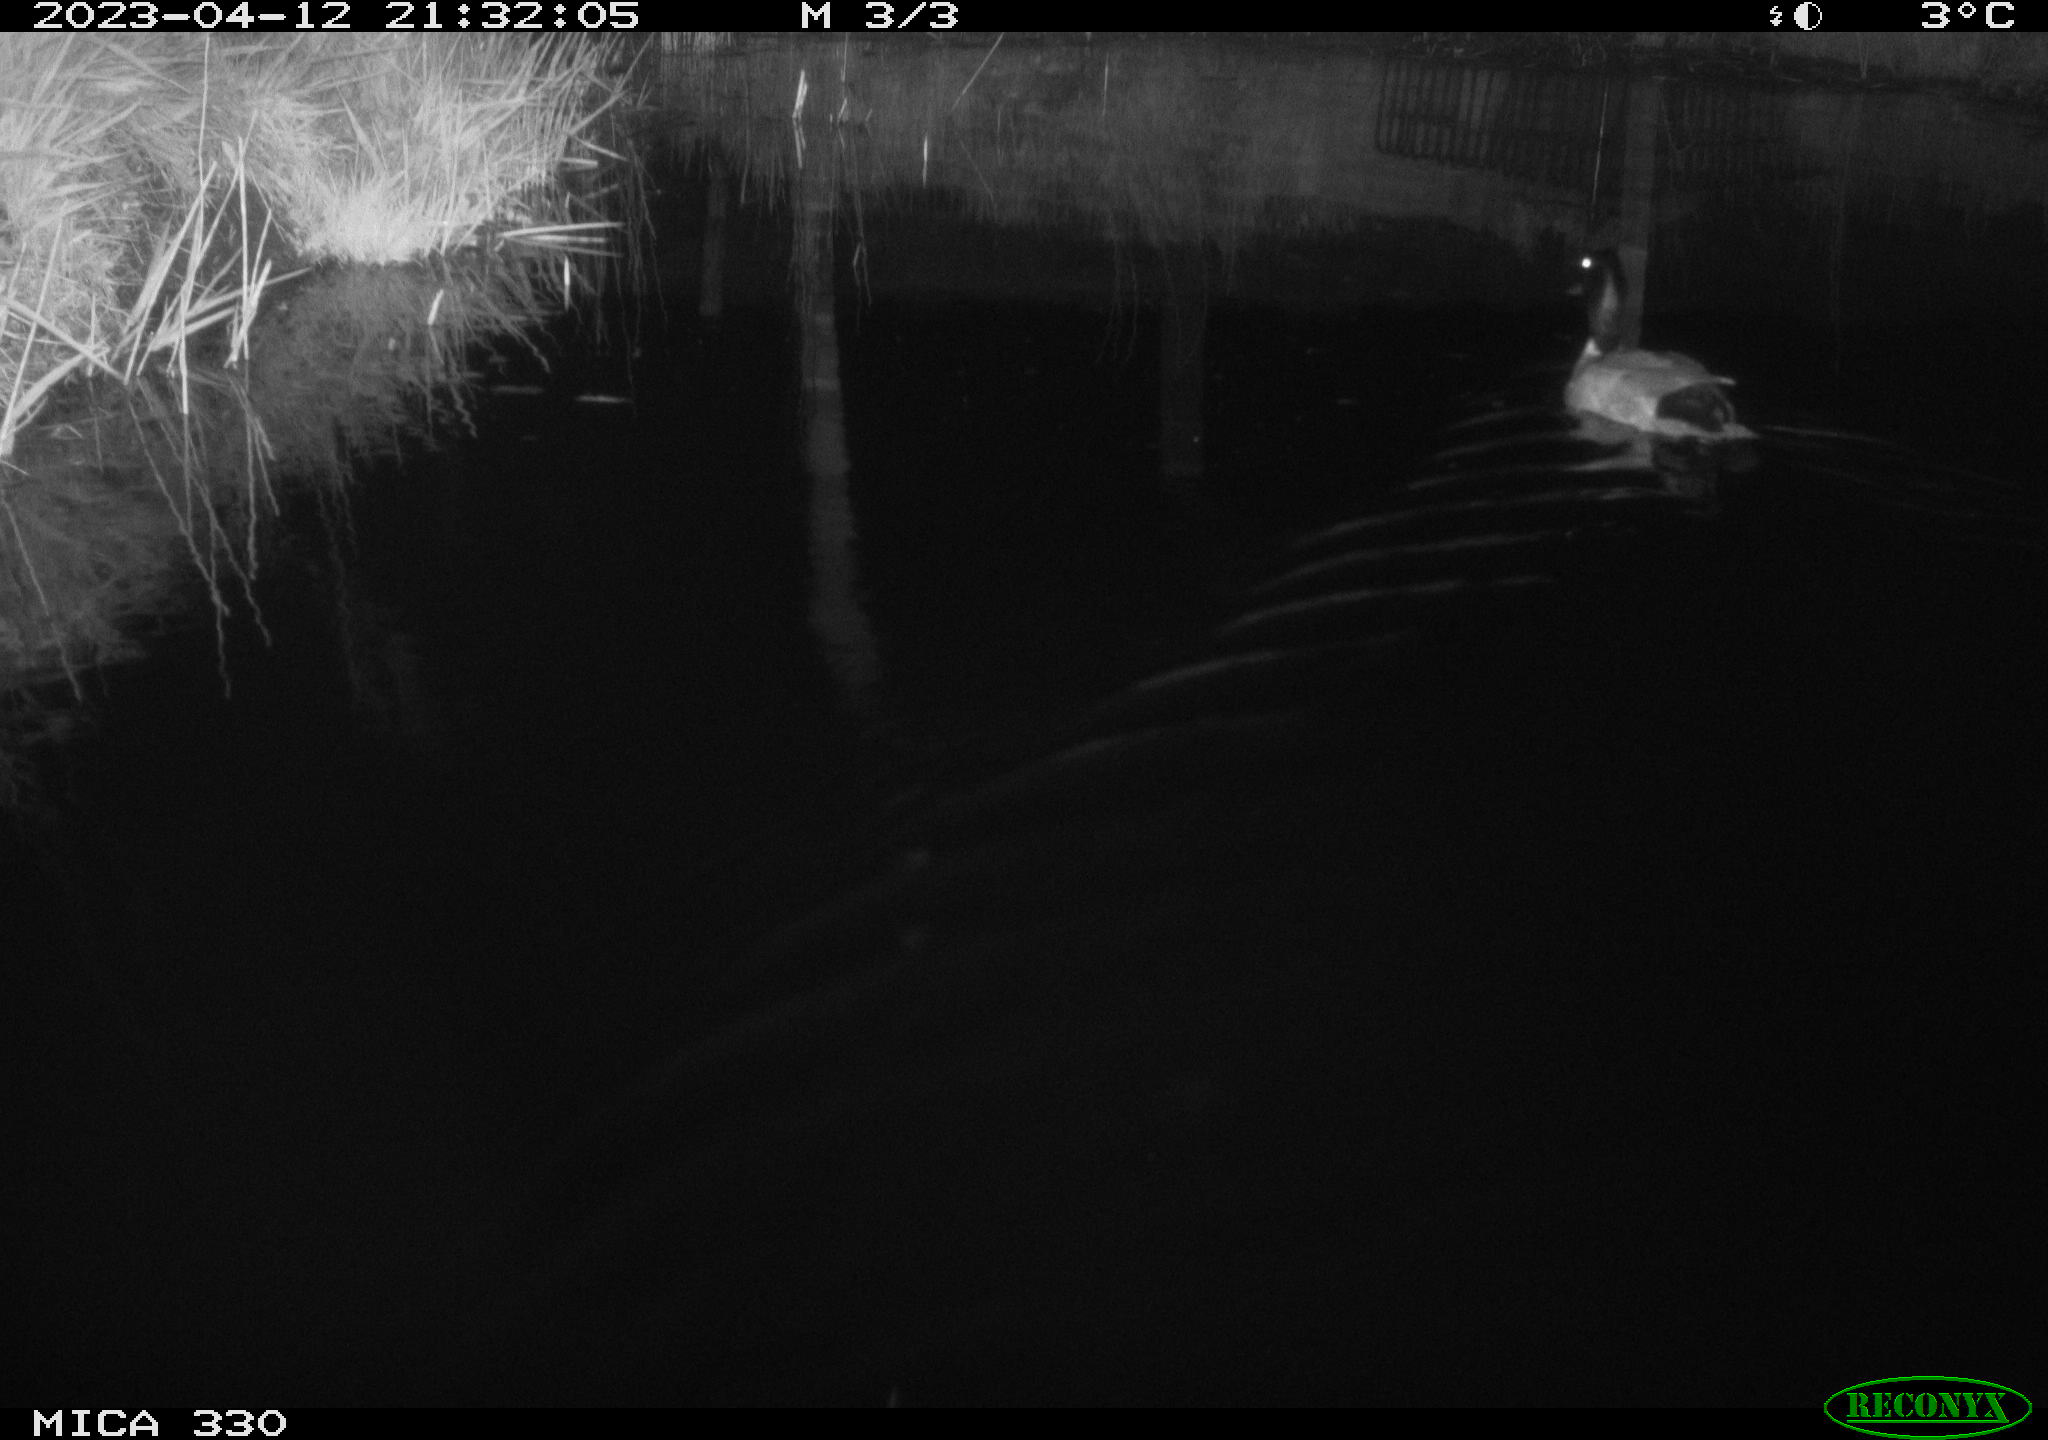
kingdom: Animalia
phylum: Chordata
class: Aves
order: Anseriformes
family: Anatidae
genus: Anas
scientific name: Anas platyrhynchos
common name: Mallard
